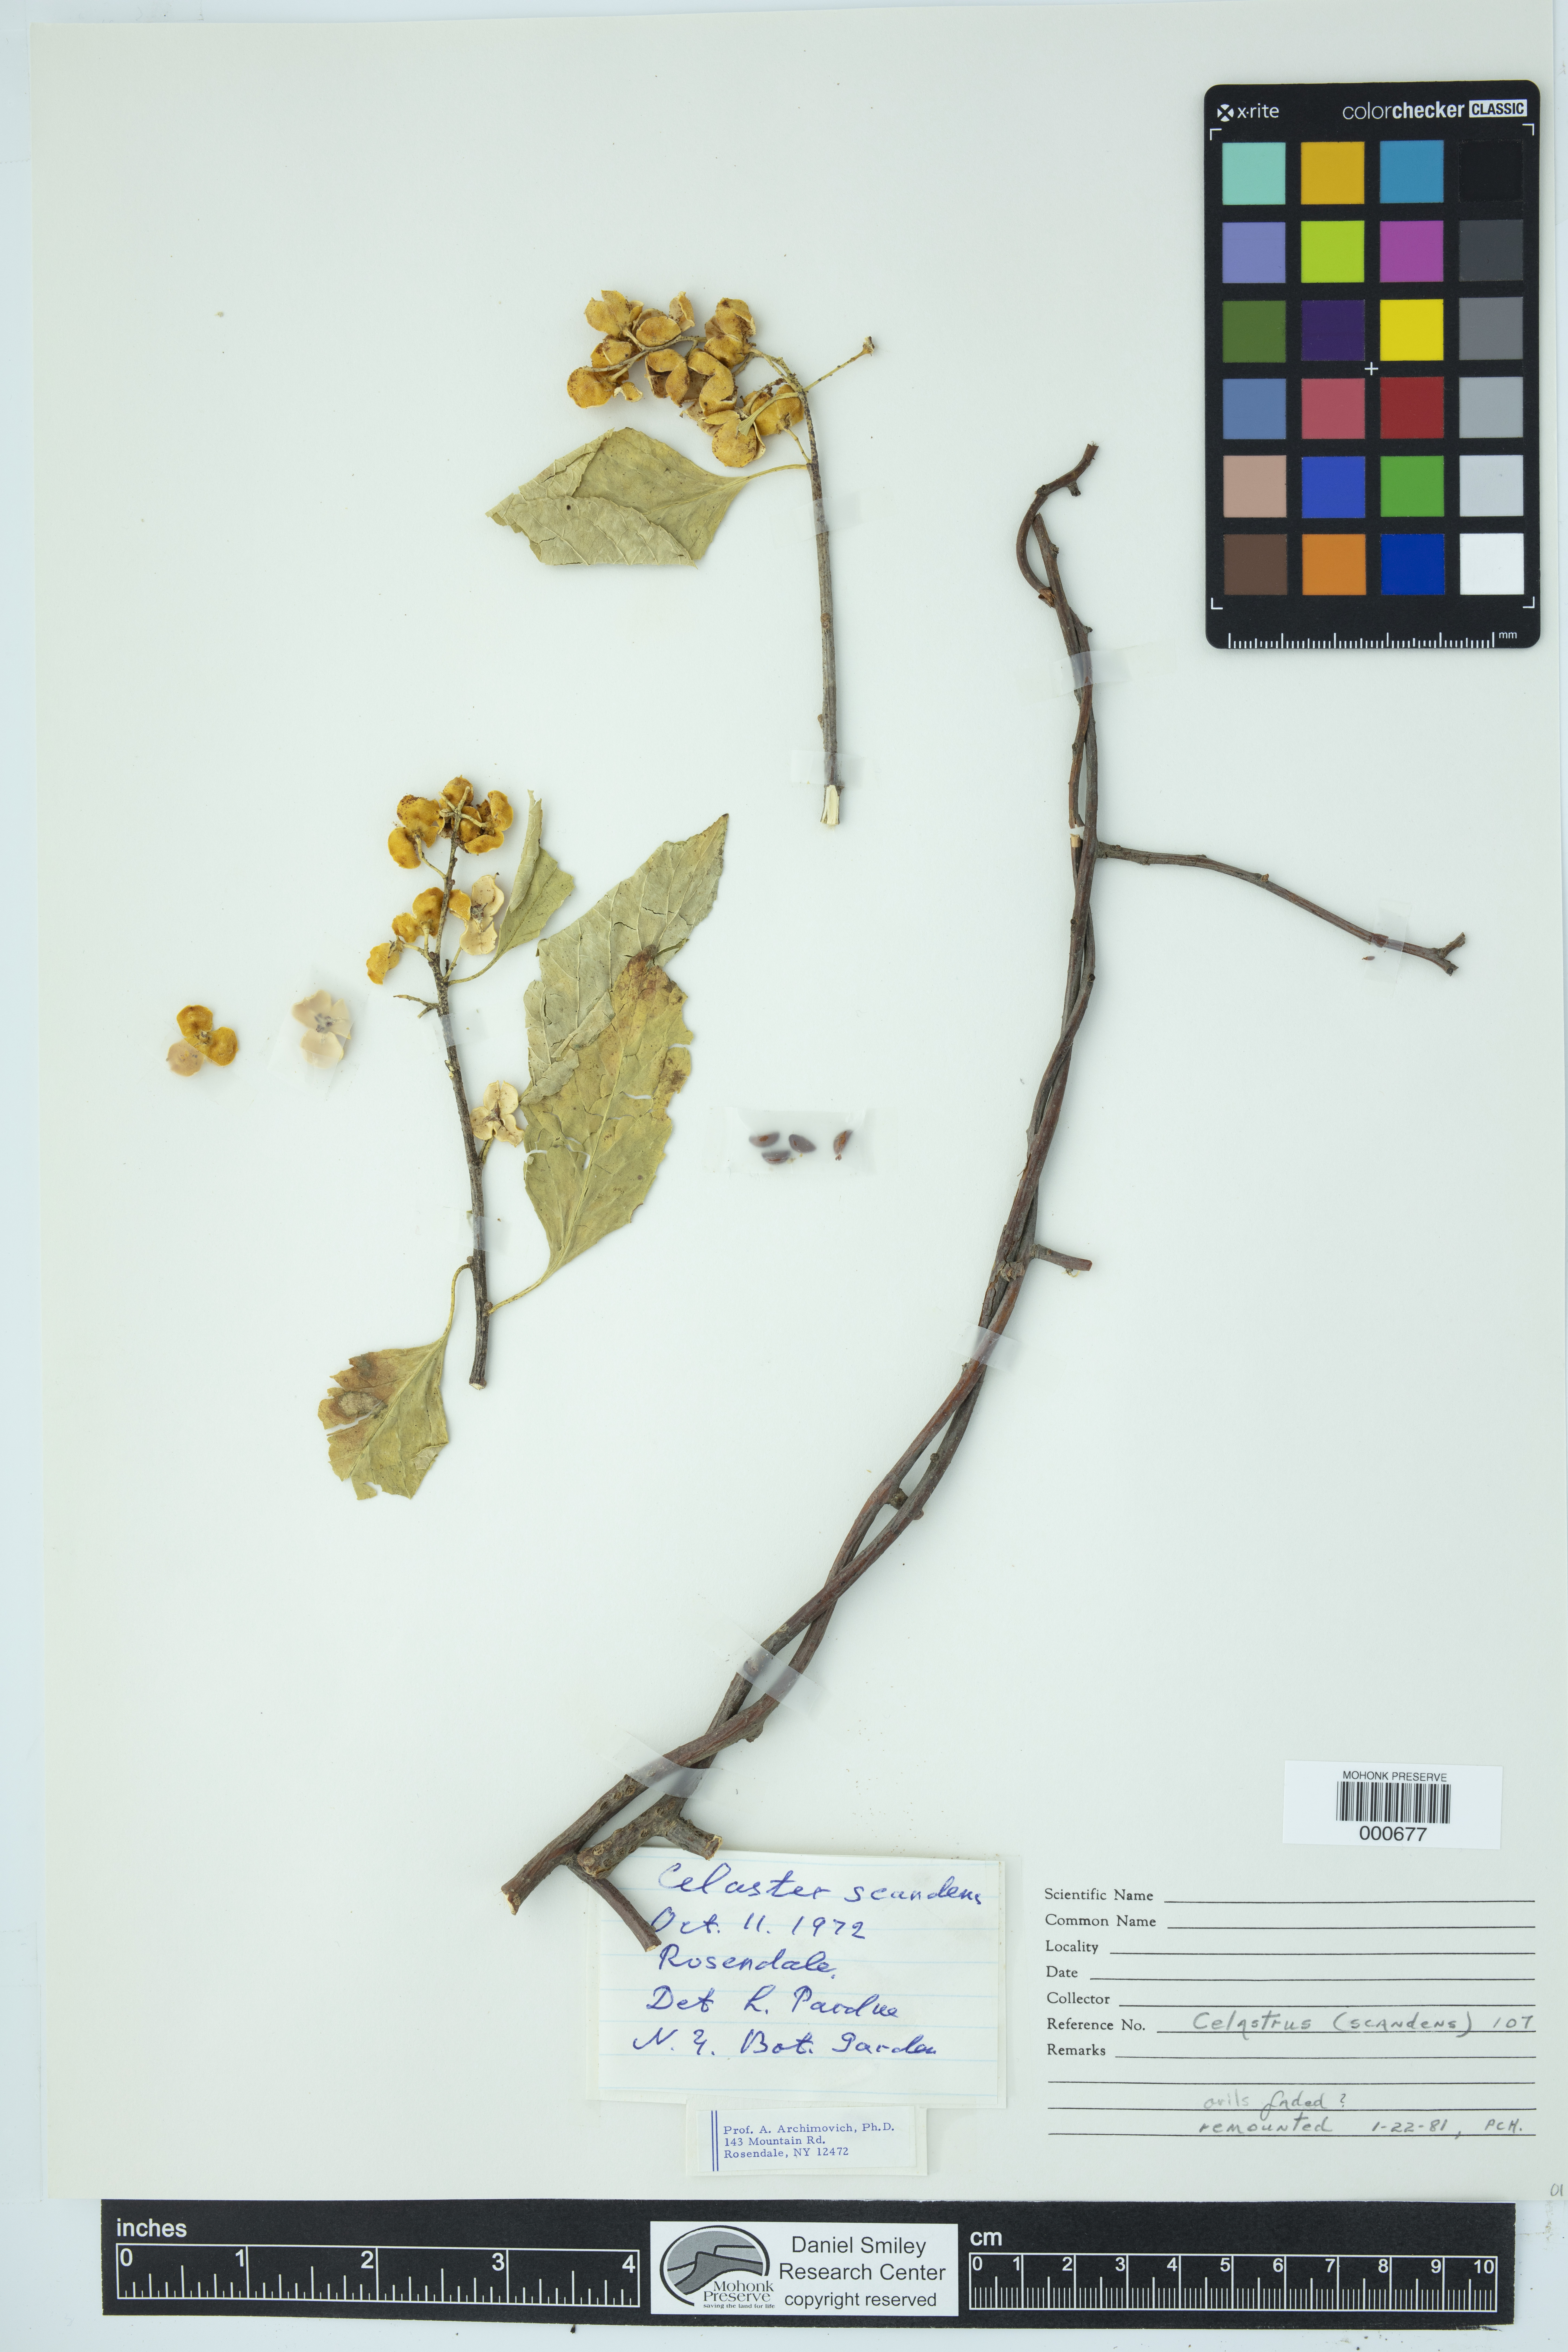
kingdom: Plantae
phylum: Tracheophyta
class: Magnoliopsida
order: Celastrales
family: Celastraceae
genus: Celastrus
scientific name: Celastrus scandens
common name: American bittersweet
